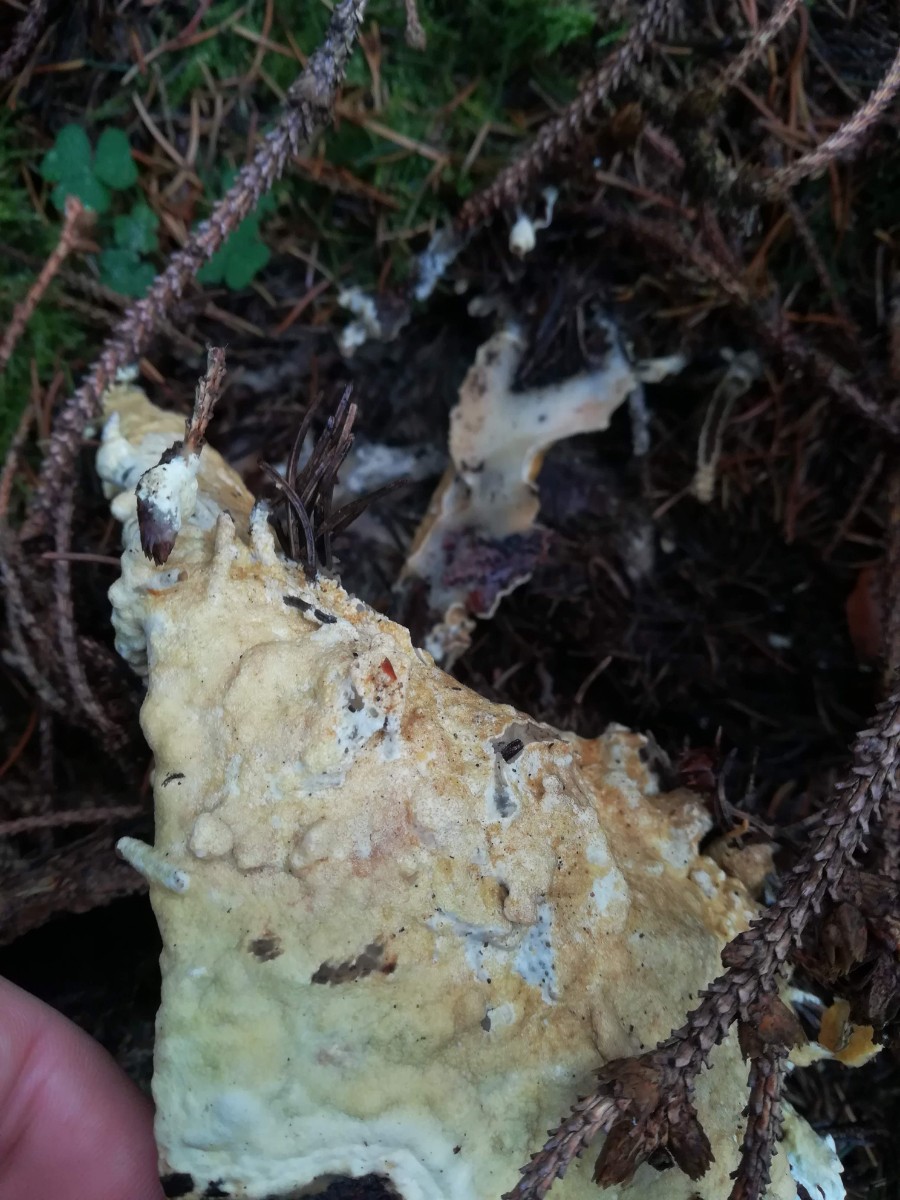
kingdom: Fungi
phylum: Ascomycota
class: Sordariomycetes
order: Hypocreales
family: Hypocreaceae
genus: Trichoderma
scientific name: Trichoderma citrinum
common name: udbredt kødkerne
